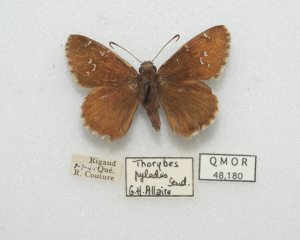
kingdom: Animalia
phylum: Arthropoda
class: Insecta
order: Lepidoptera
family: Hesperiidae
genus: Autochton
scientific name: Autochton
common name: Northern Cloudywing
